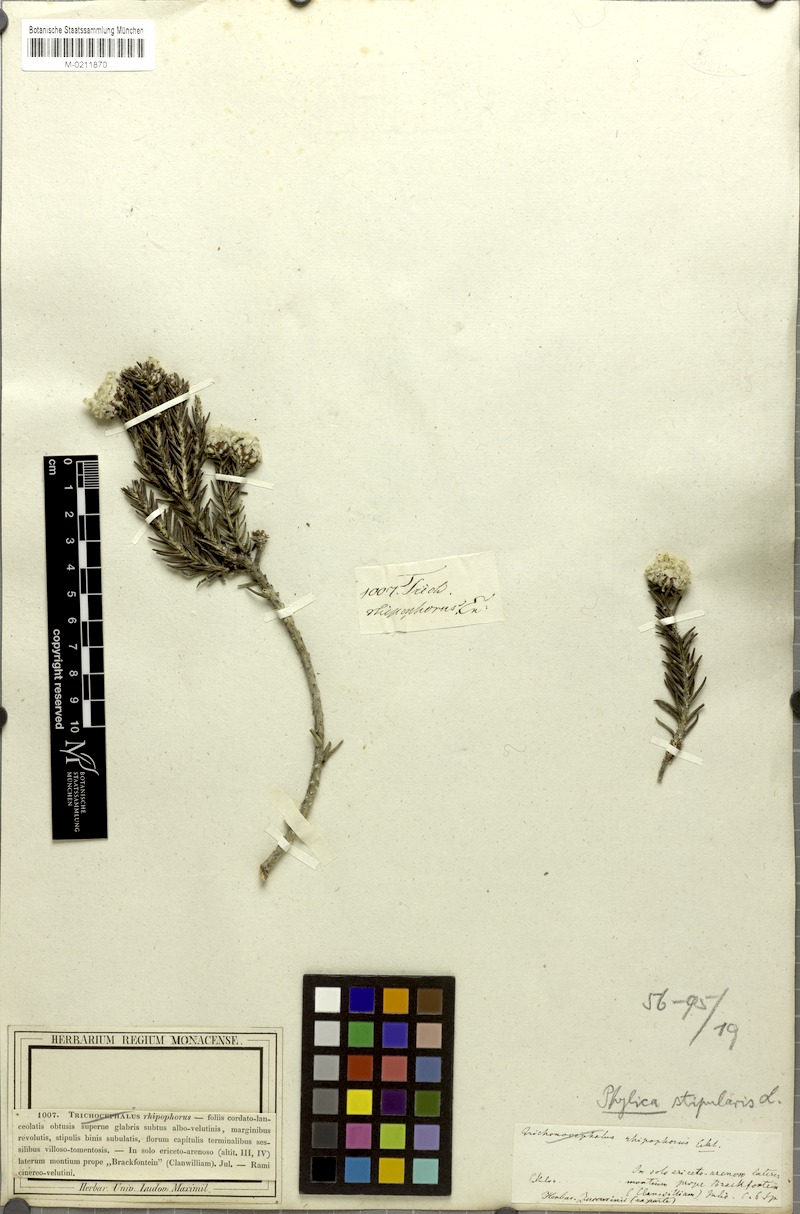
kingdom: Plantae
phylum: Tracheophyta
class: Magnoliopsida
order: Rosales
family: Rhamnaceae
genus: Trichocephalus
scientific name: Trichocephalus stipularis
